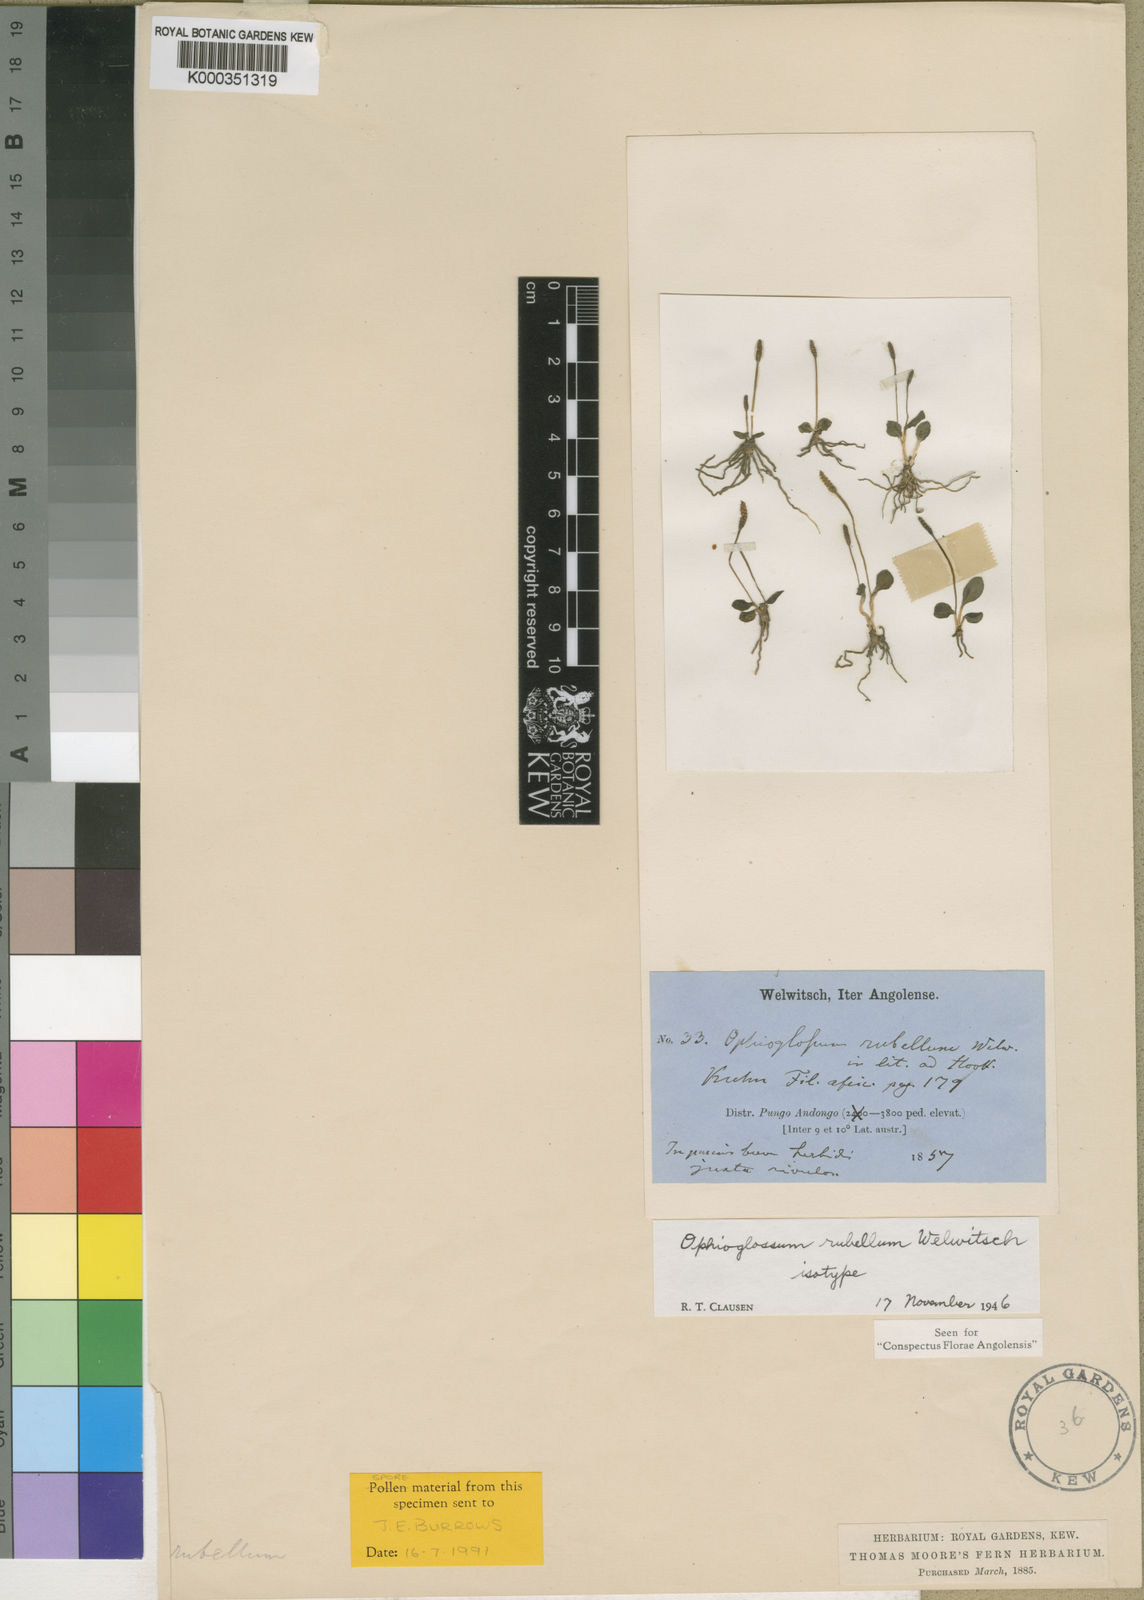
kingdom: Plantae
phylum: Tracheophyta
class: Polypodiopsida
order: Ophioglossales
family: Ophioglossaceae
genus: Ophioglossum
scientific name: Ophioglossum thomasii
